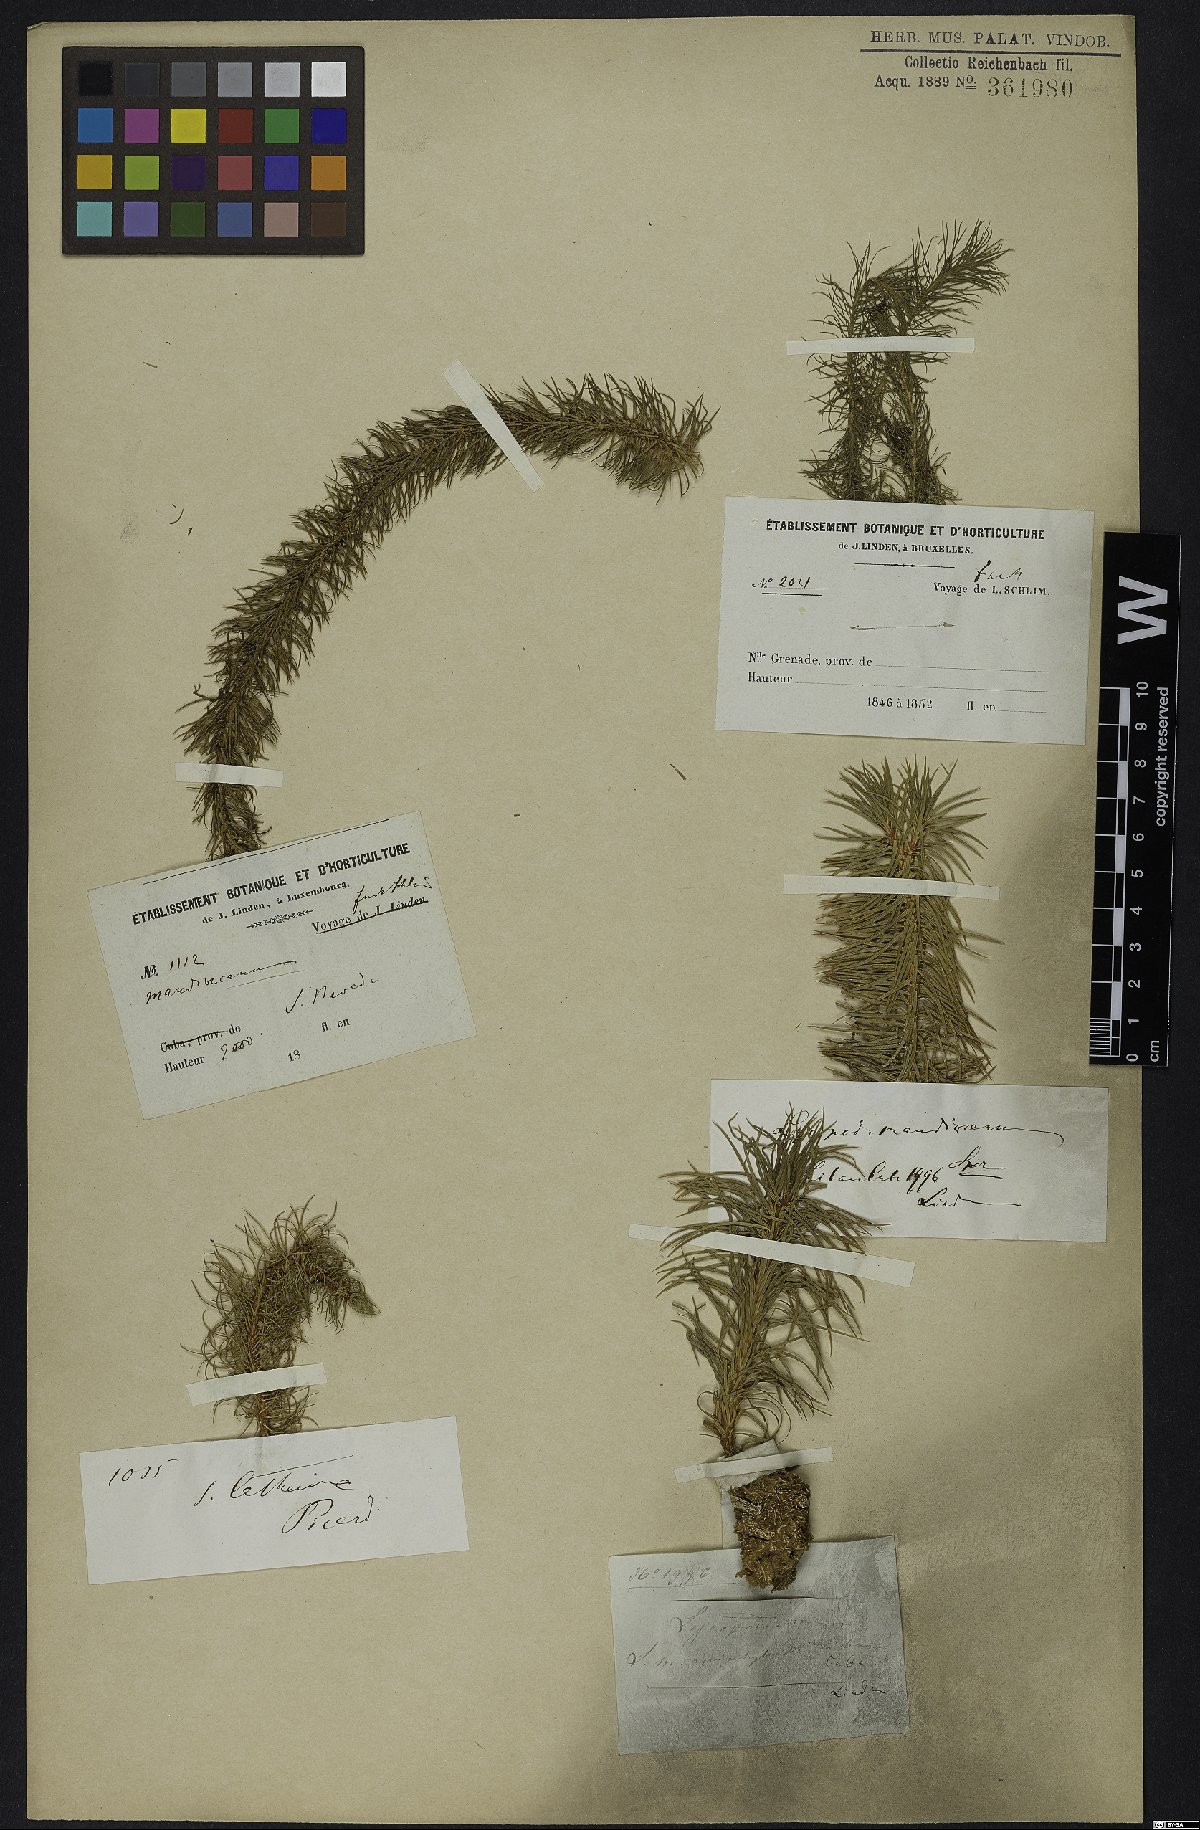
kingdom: Plantae
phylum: Tracheophyta
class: Lycopodiopsida
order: Lycopodiales
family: Lycopodiaceae
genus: Phlegmariurus
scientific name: Phlegmariurus mandiocanus
